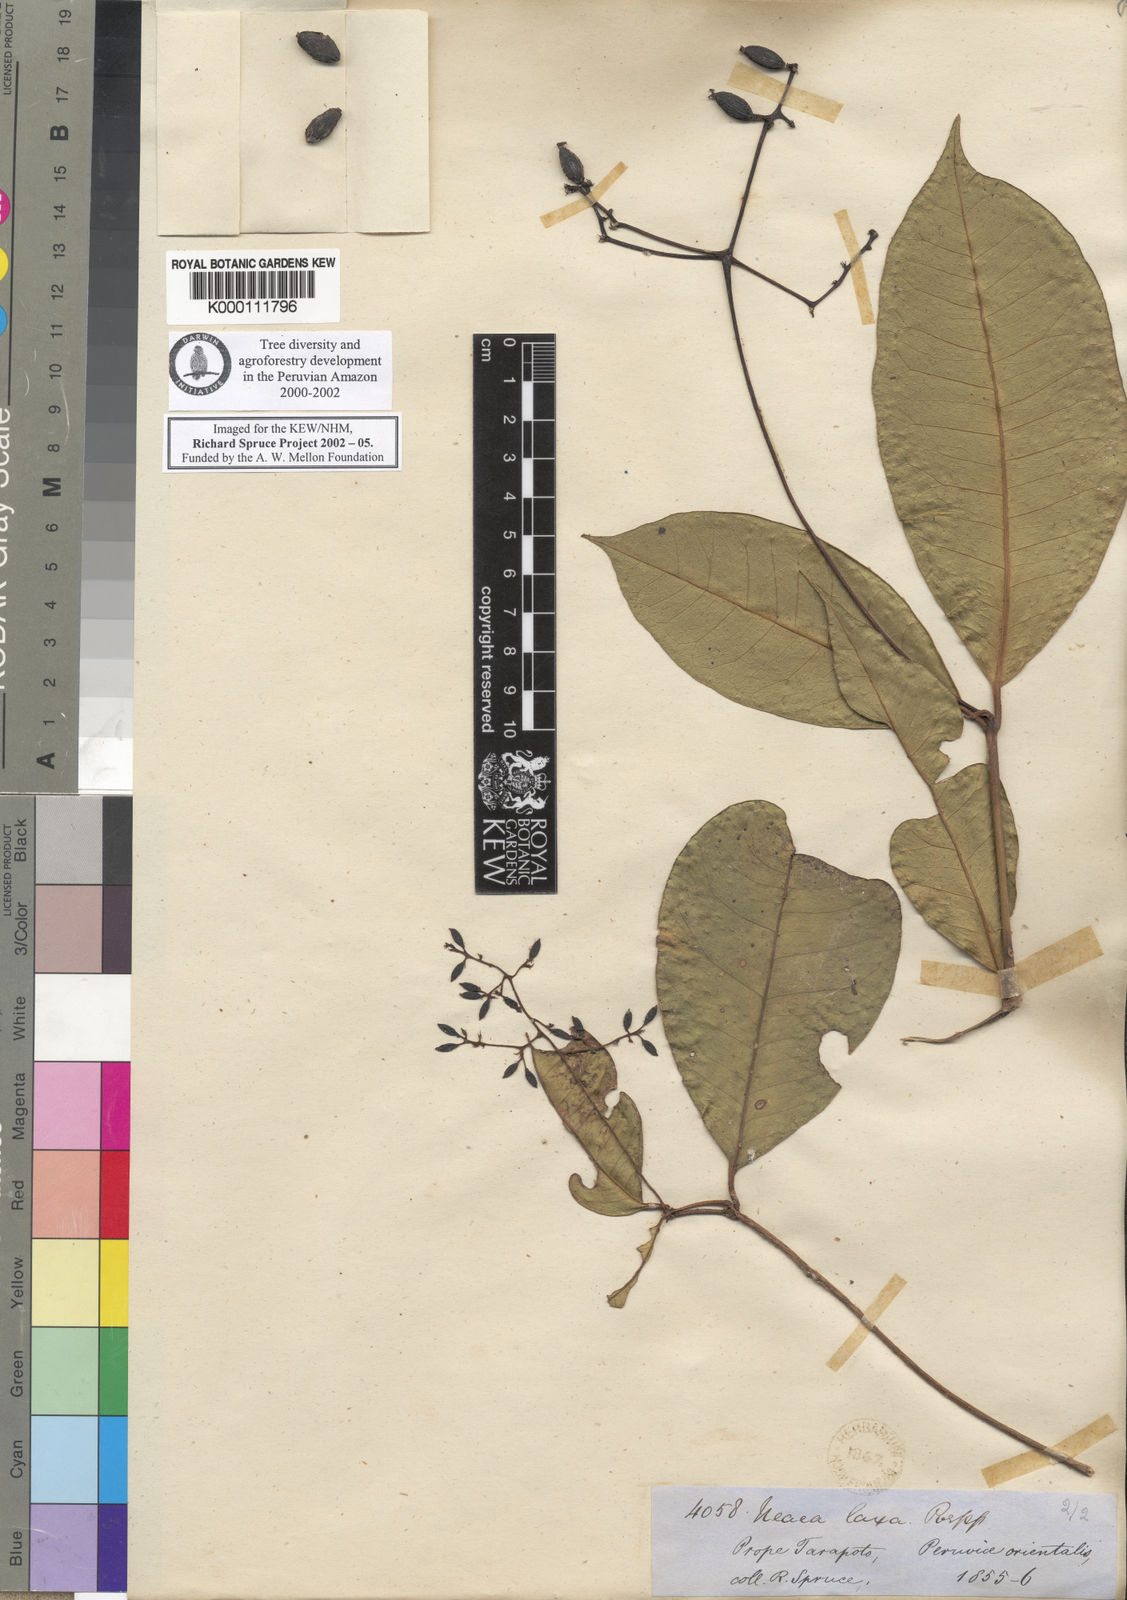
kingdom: Plantae
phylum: Tracheophyta
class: Magnoliopsida
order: Caryophyllales
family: Nyctaginaceae
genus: Neea
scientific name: Neea laxa
